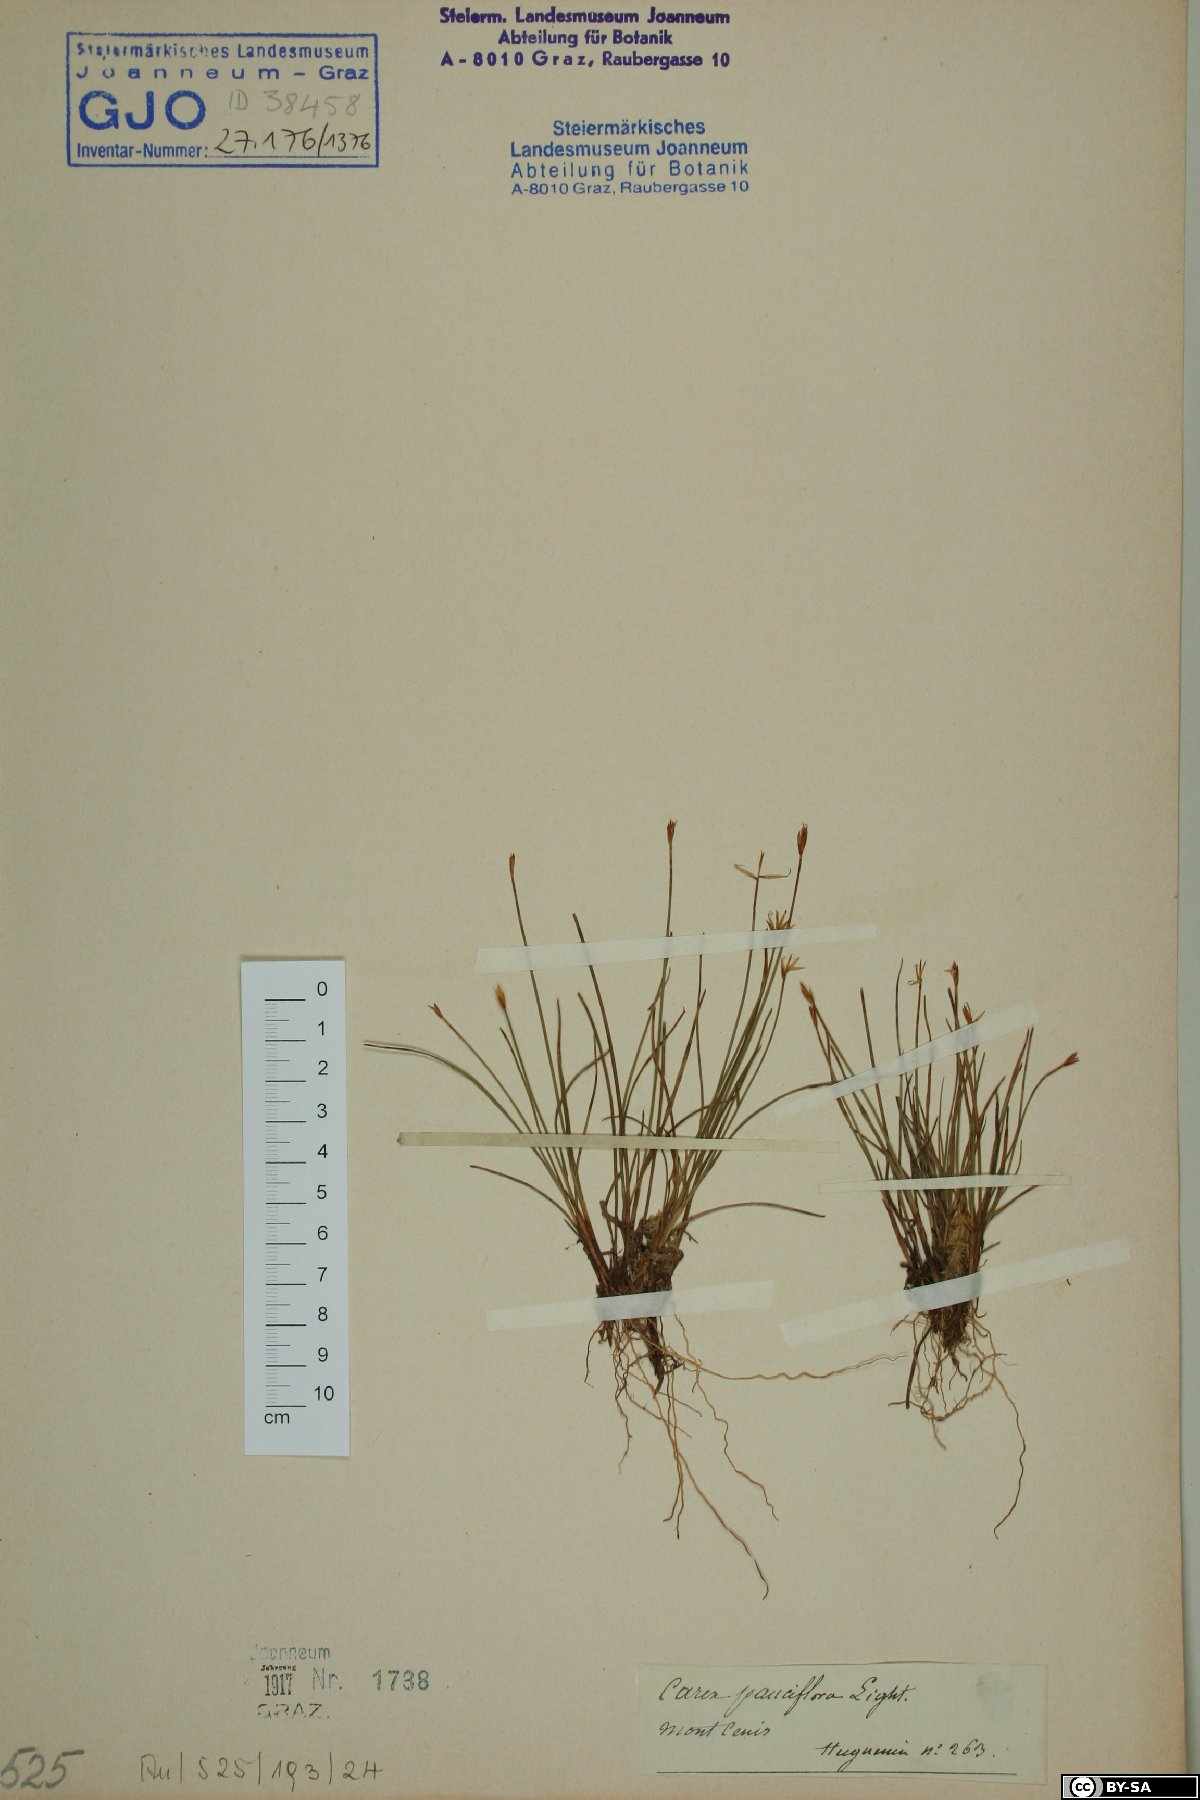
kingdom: Plantae
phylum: Tracheophyta
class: Liliopsida
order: Poales
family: Cyperaceae
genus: Carex
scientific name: Carex pauciflora
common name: Few-flowered sedge
